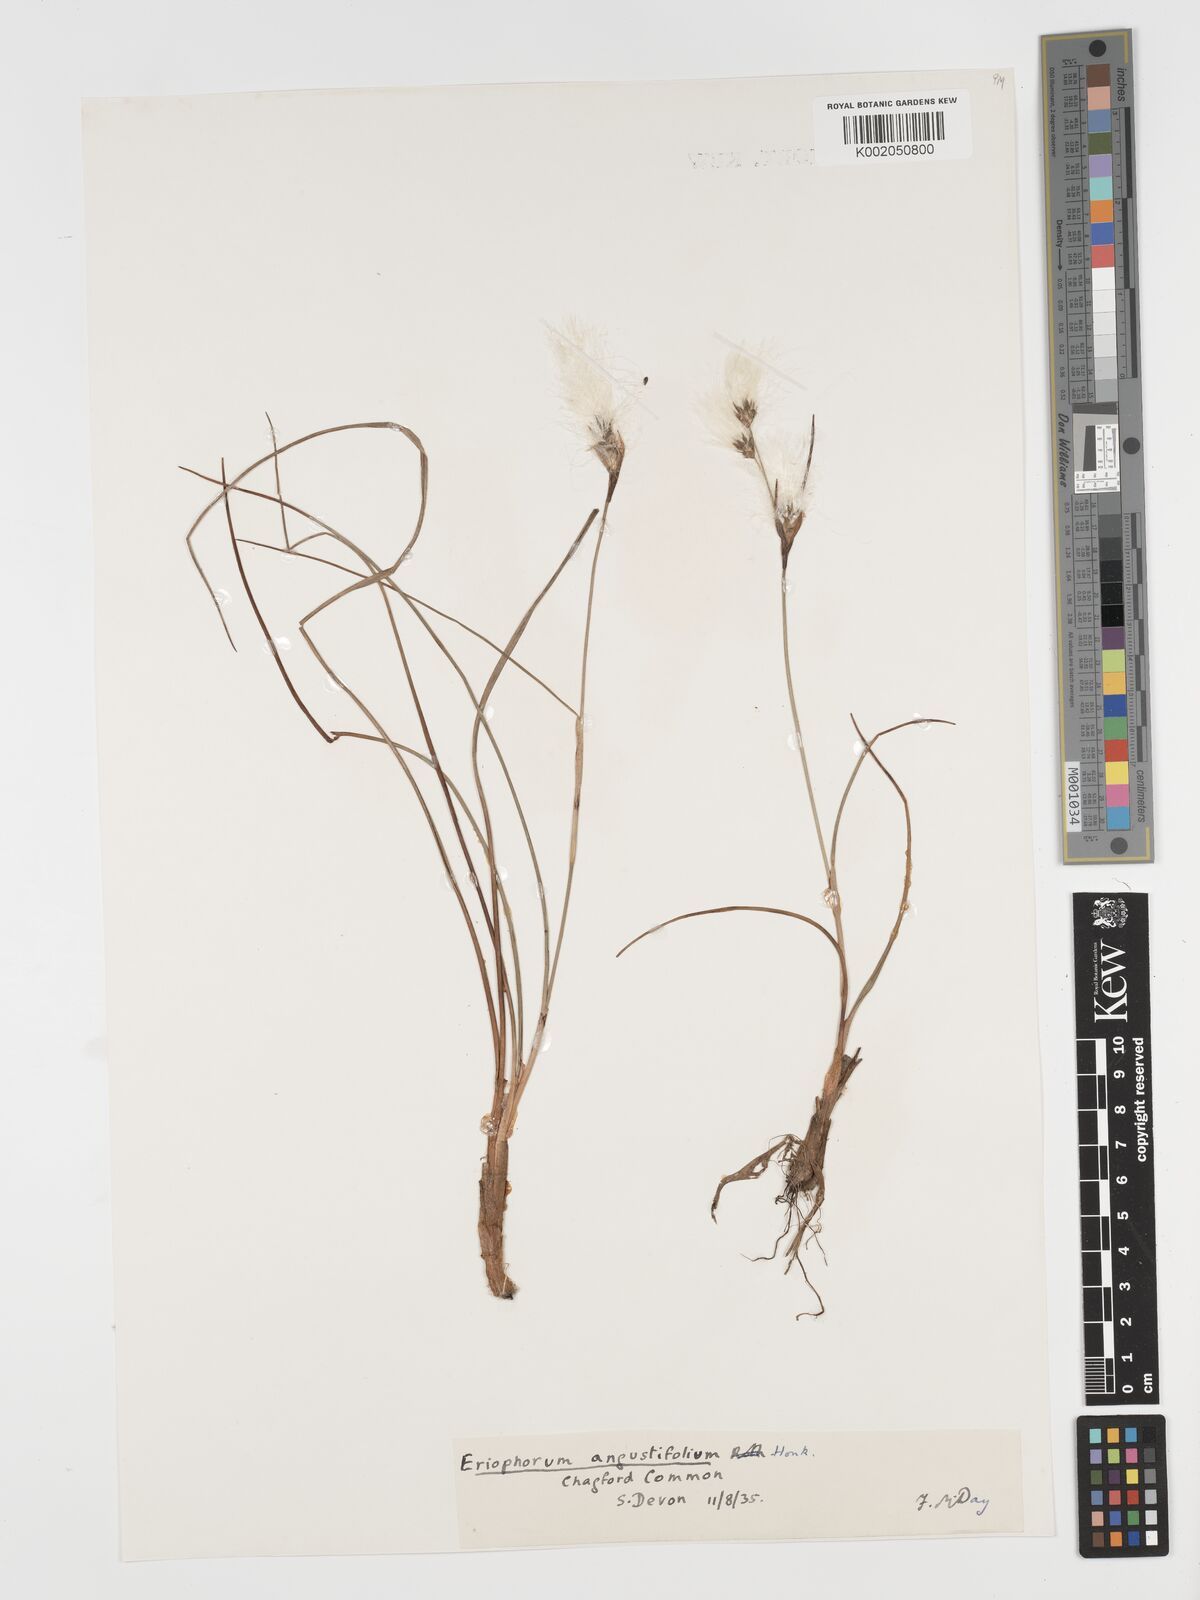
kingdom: Plantae
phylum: Tracheophyta
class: Liliopsida
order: Poales
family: Cyperaceae
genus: Eriophorum
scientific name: Eriophorum angustifolium
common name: Common cottongrass
